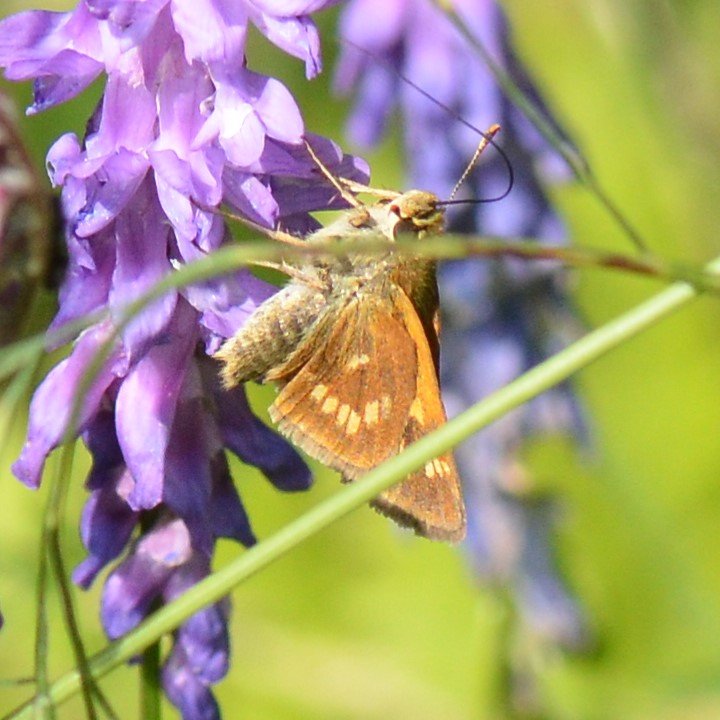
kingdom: Animalia
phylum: Arthropoda
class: Insecta
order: Lepidoptera
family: Hesperiidae
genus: Polites
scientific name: Polites
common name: Long Dash Skipper
